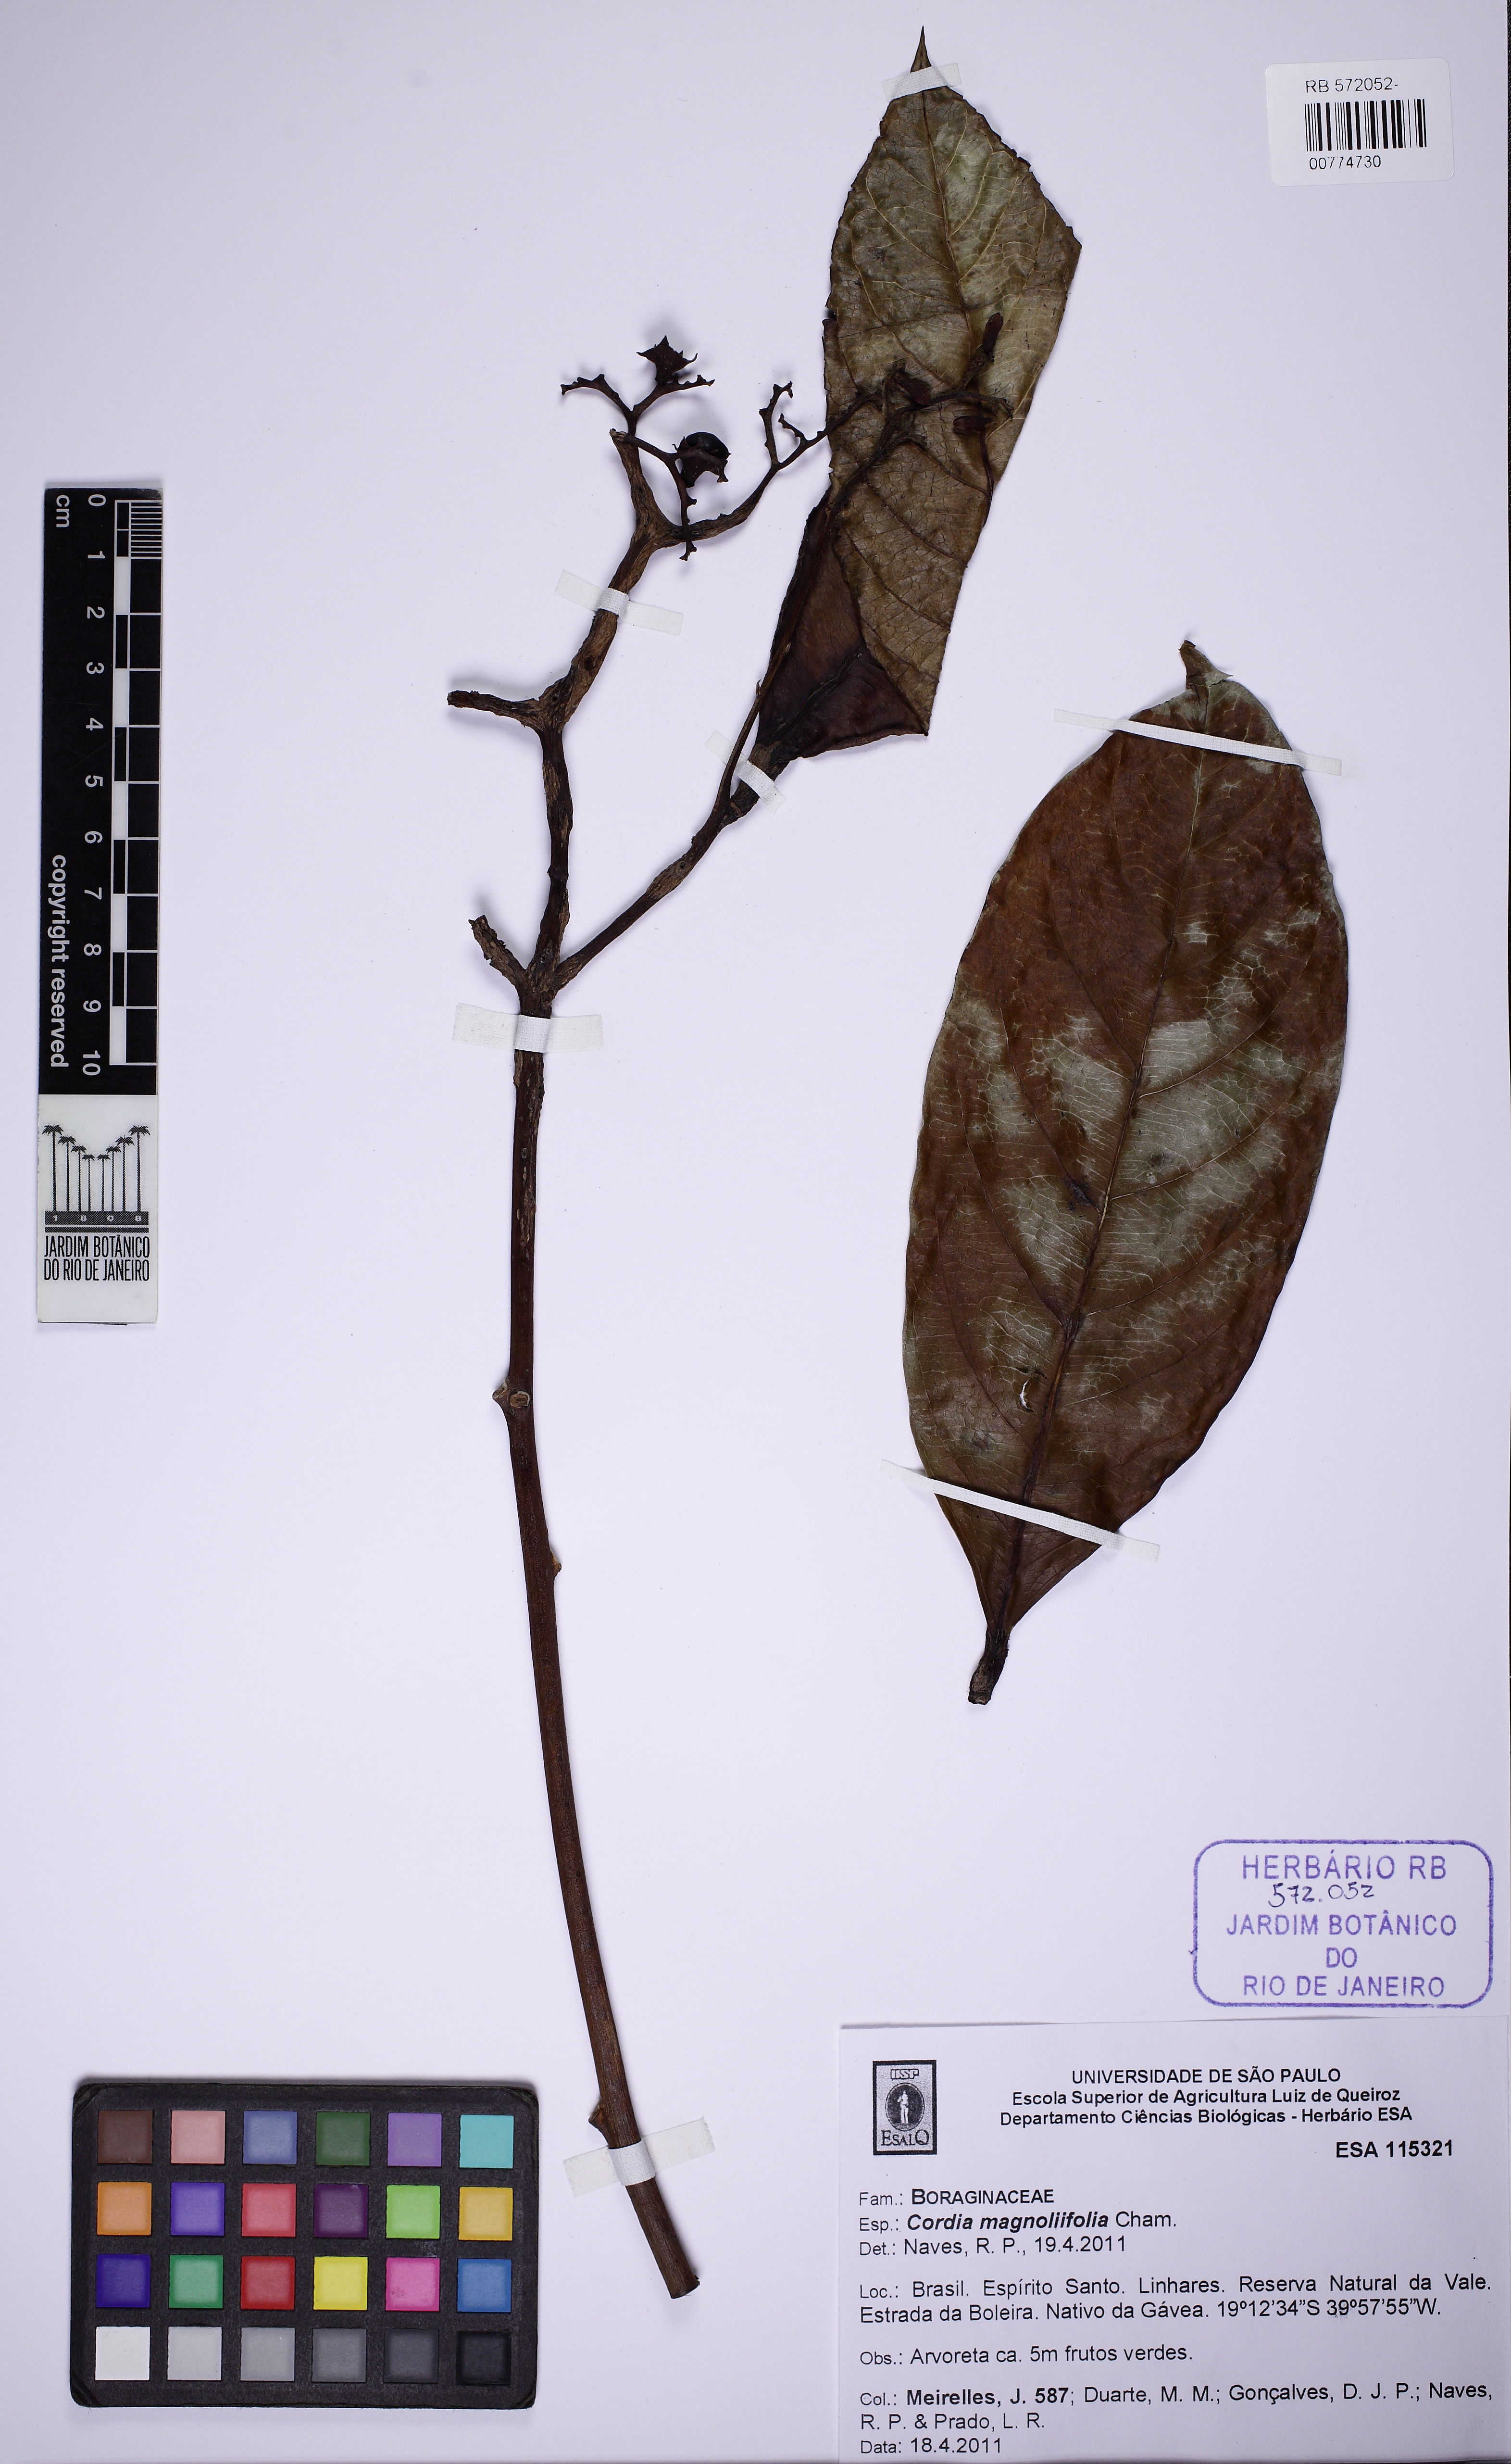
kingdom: Plantae
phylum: Tracheophyta
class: Magnoliopsida
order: Boraginales
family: Cordiaceae
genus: Cordia
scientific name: Cordia magnoliifolia
